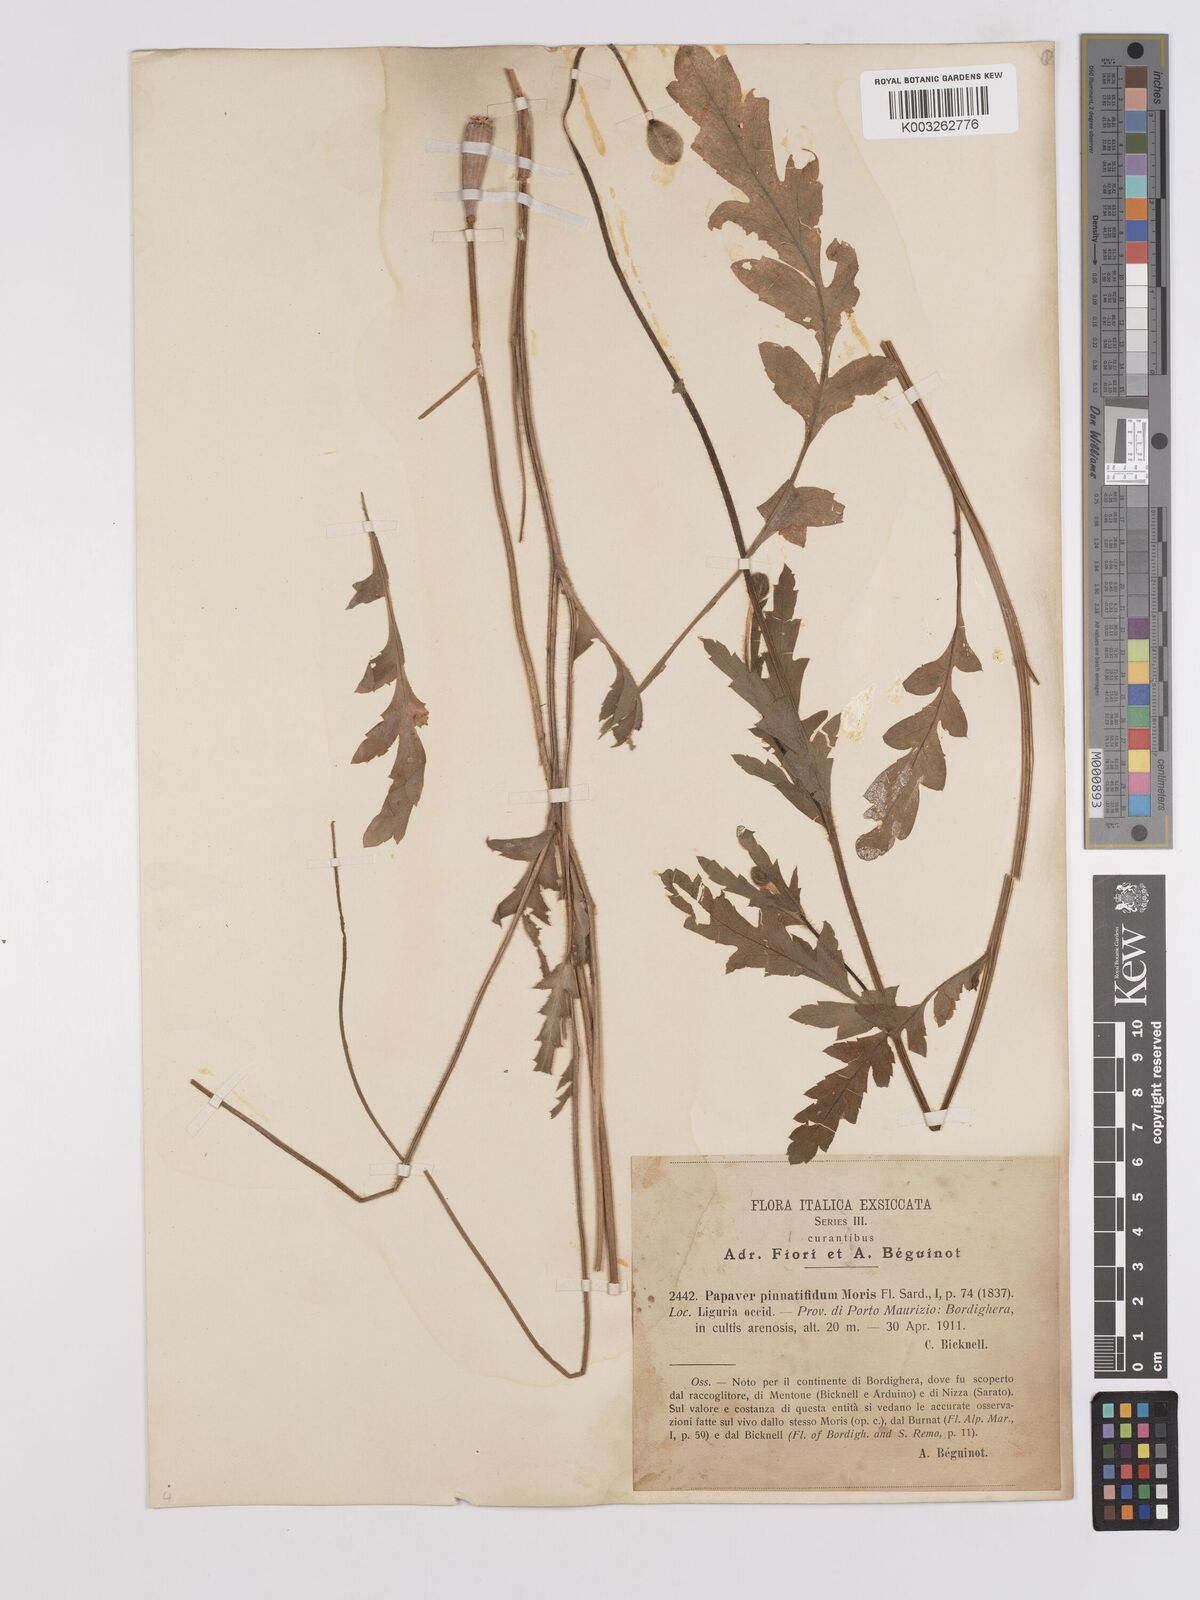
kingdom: Plantae
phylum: Tracheophyta
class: Magnoliopsida
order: Ranunculales
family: Papaveraceae
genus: Papaver
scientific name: Papaver pinnatifidum
